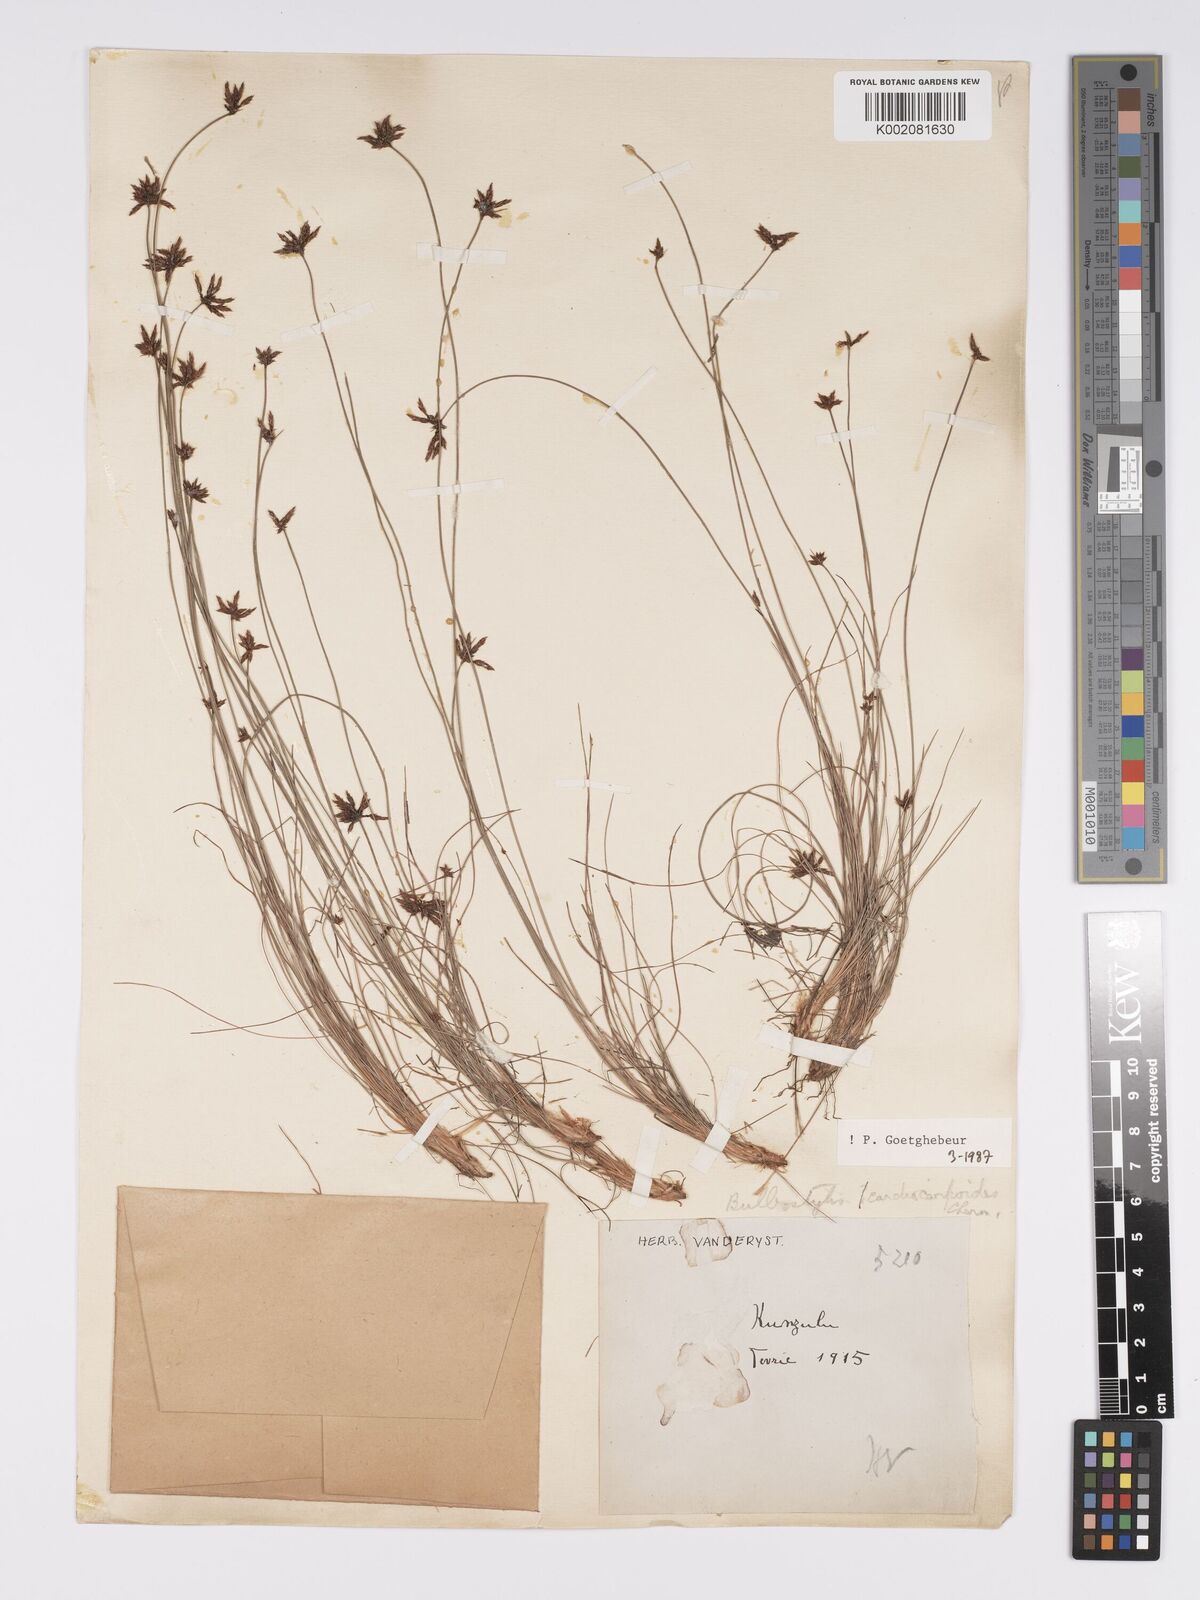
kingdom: Plantae
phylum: Tracheophyta
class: Liliopsida
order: Poales
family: Cyperaceae
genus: Bulbostylis
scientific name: Bulbostylis cardiocarpoides
